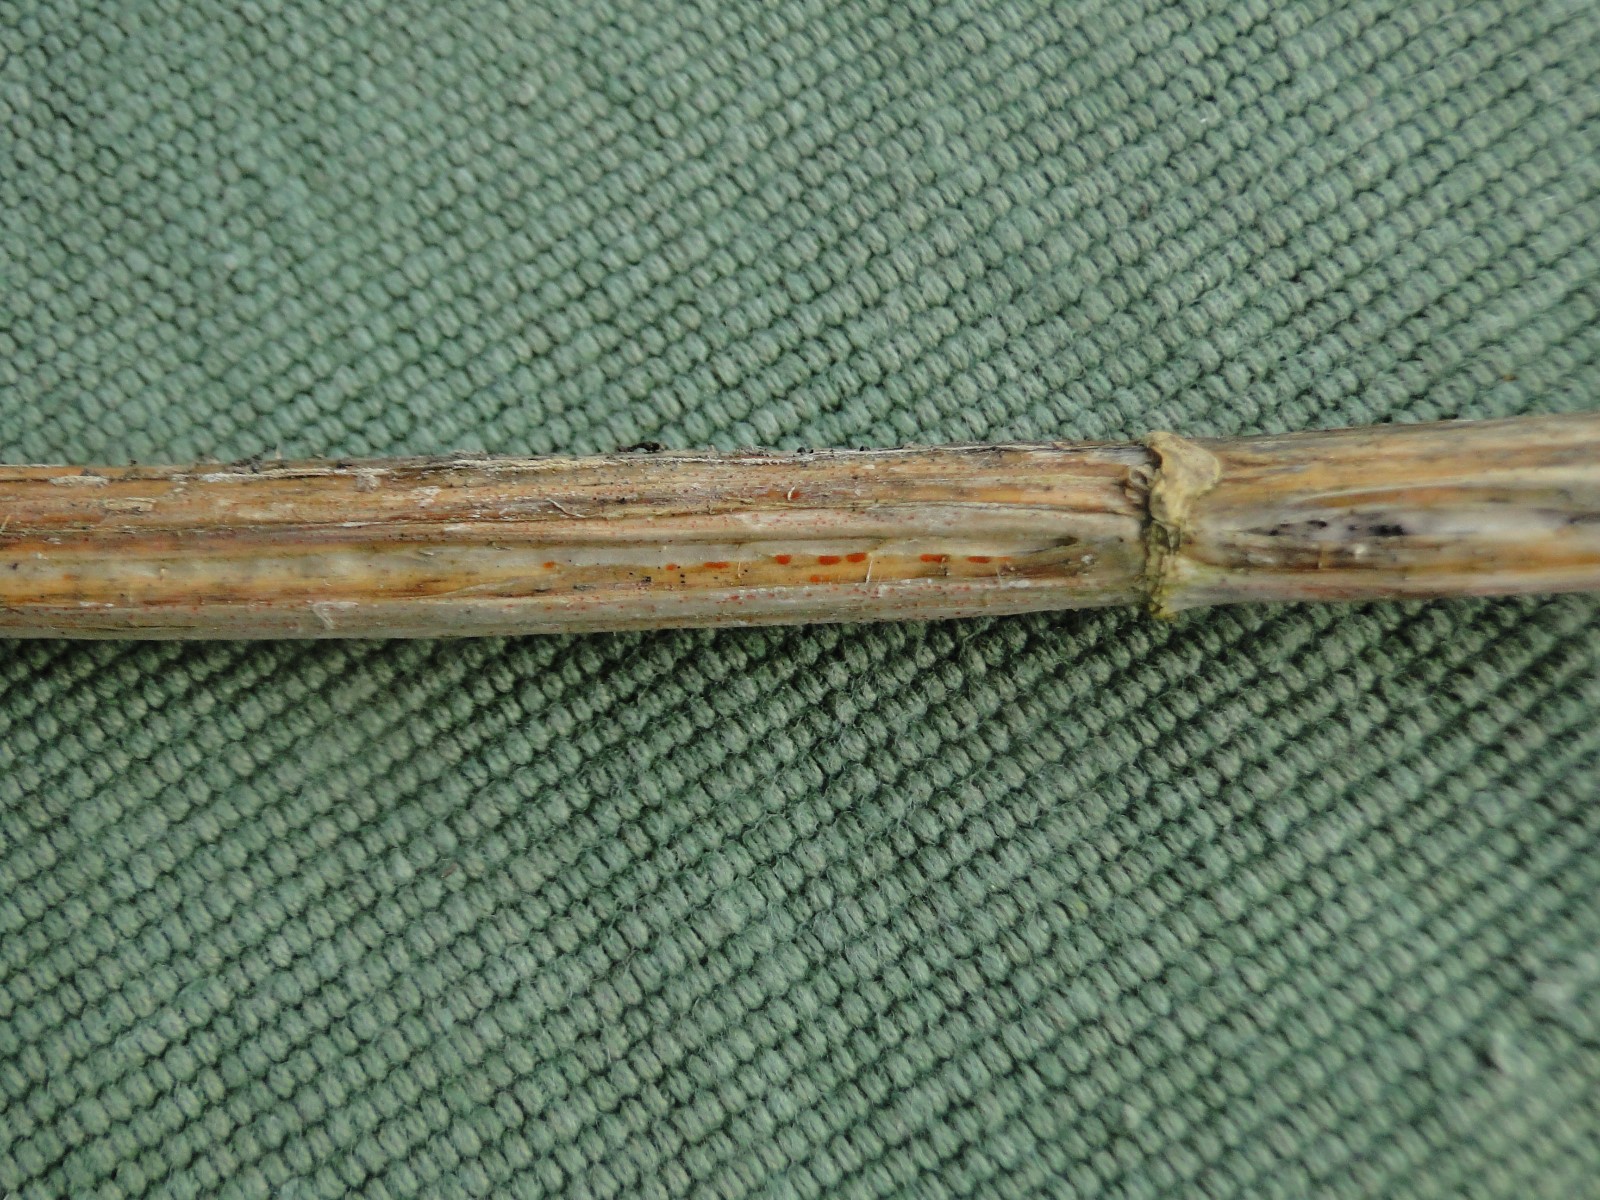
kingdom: Fungi
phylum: Ascomycota
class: Leotiomycetes
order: Helotiales
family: Calloriaceae
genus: Calloria
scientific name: Calloria urticae
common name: nælde-orangeskive
